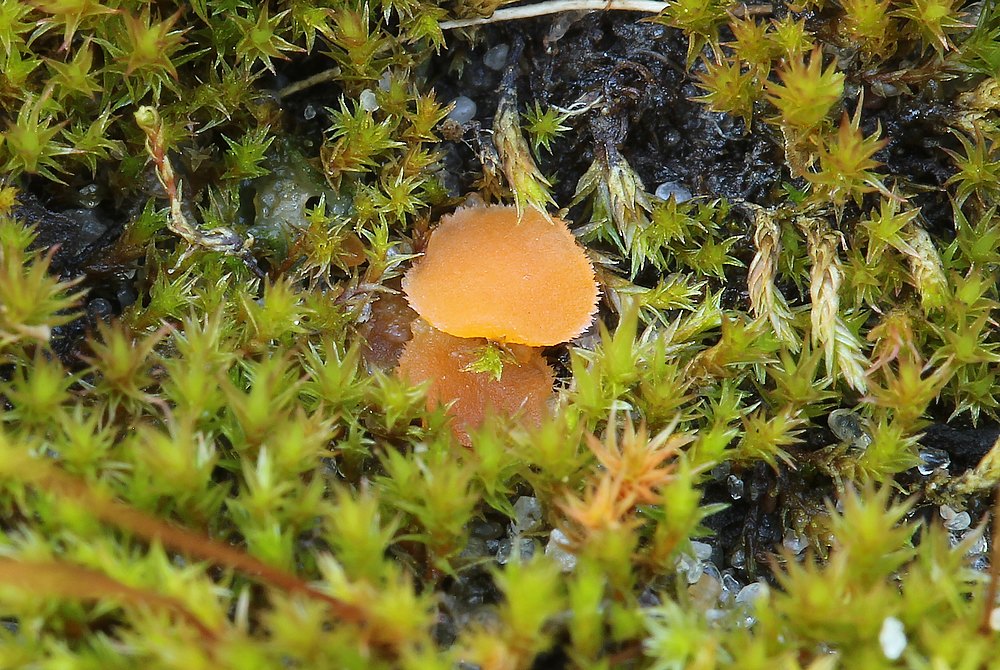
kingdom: Fungi
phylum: Ascomycota
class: Pezizomycetes
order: Pezizales
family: Pyronemataceae
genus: Neottiella
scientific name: Neottiella hetieri
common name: spidshåret mosbæger
